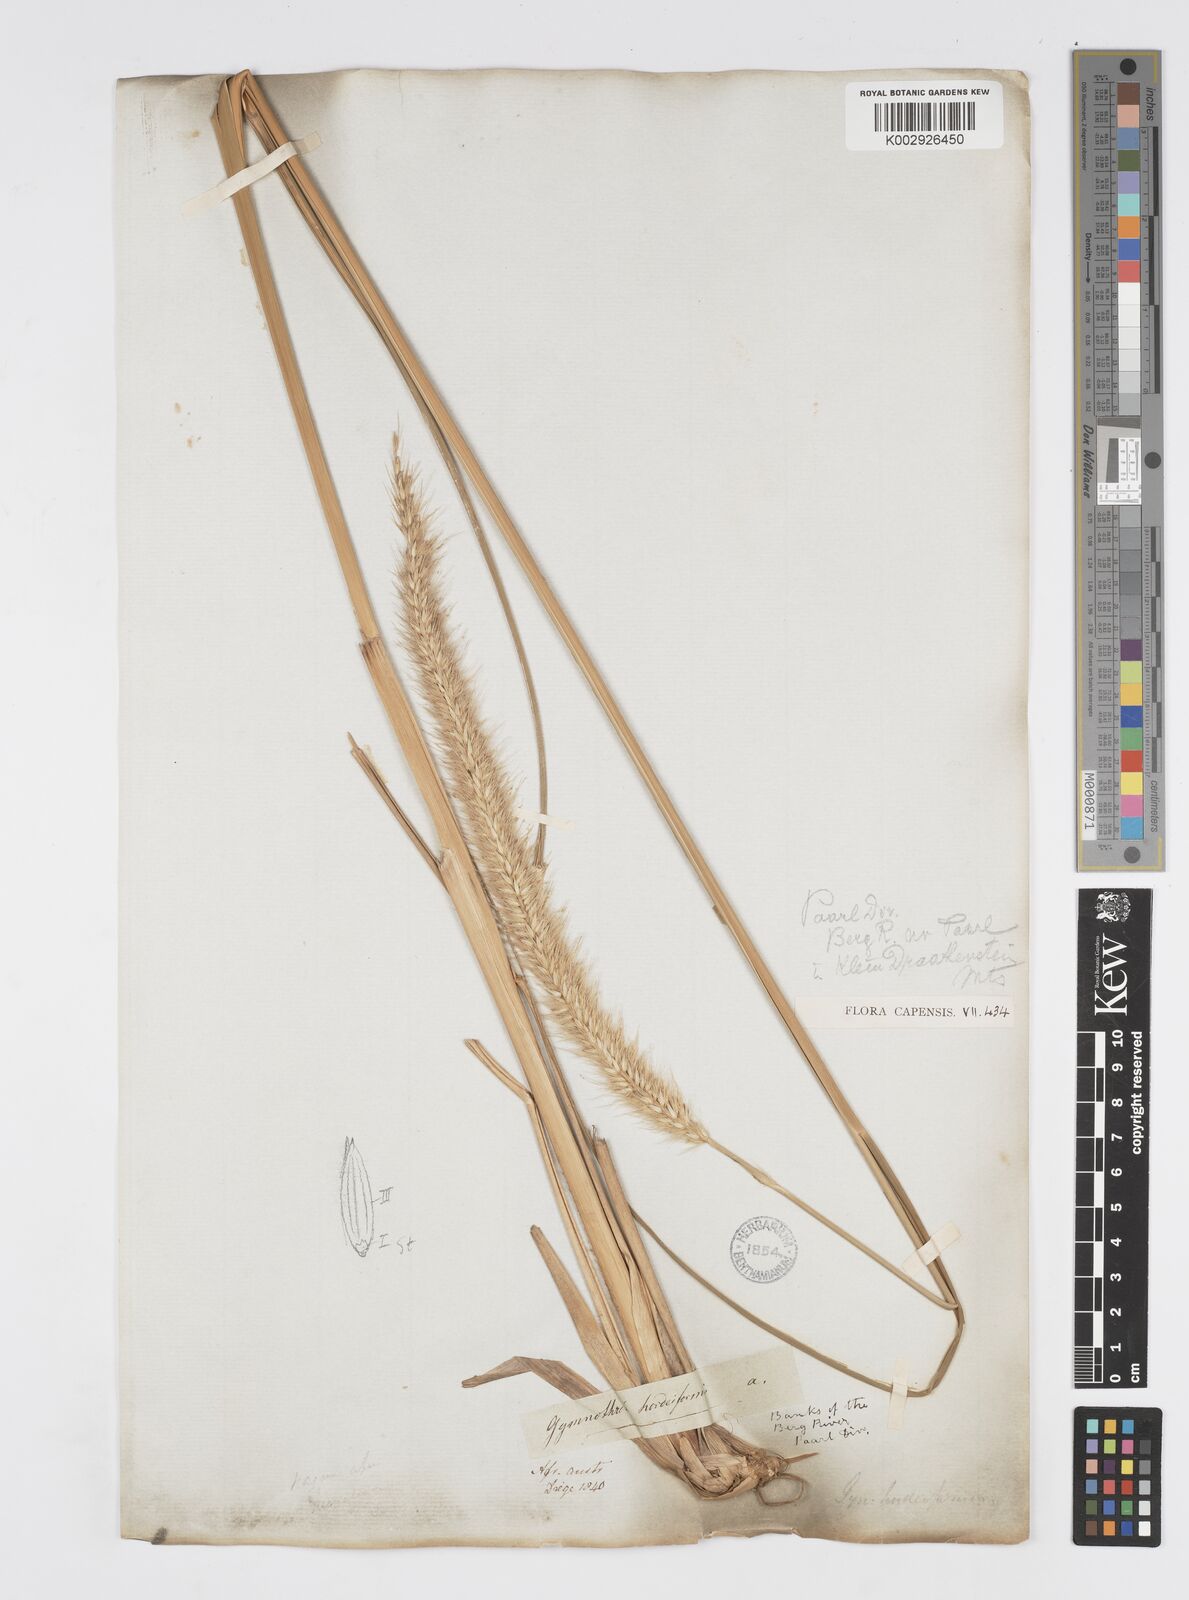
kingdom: Plantae
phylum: Tracheophyta
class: Liliopsida
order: Poales
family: Poaceae
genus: Cenchrus
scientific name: Cenchrus purpureus
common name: Elephant grass
